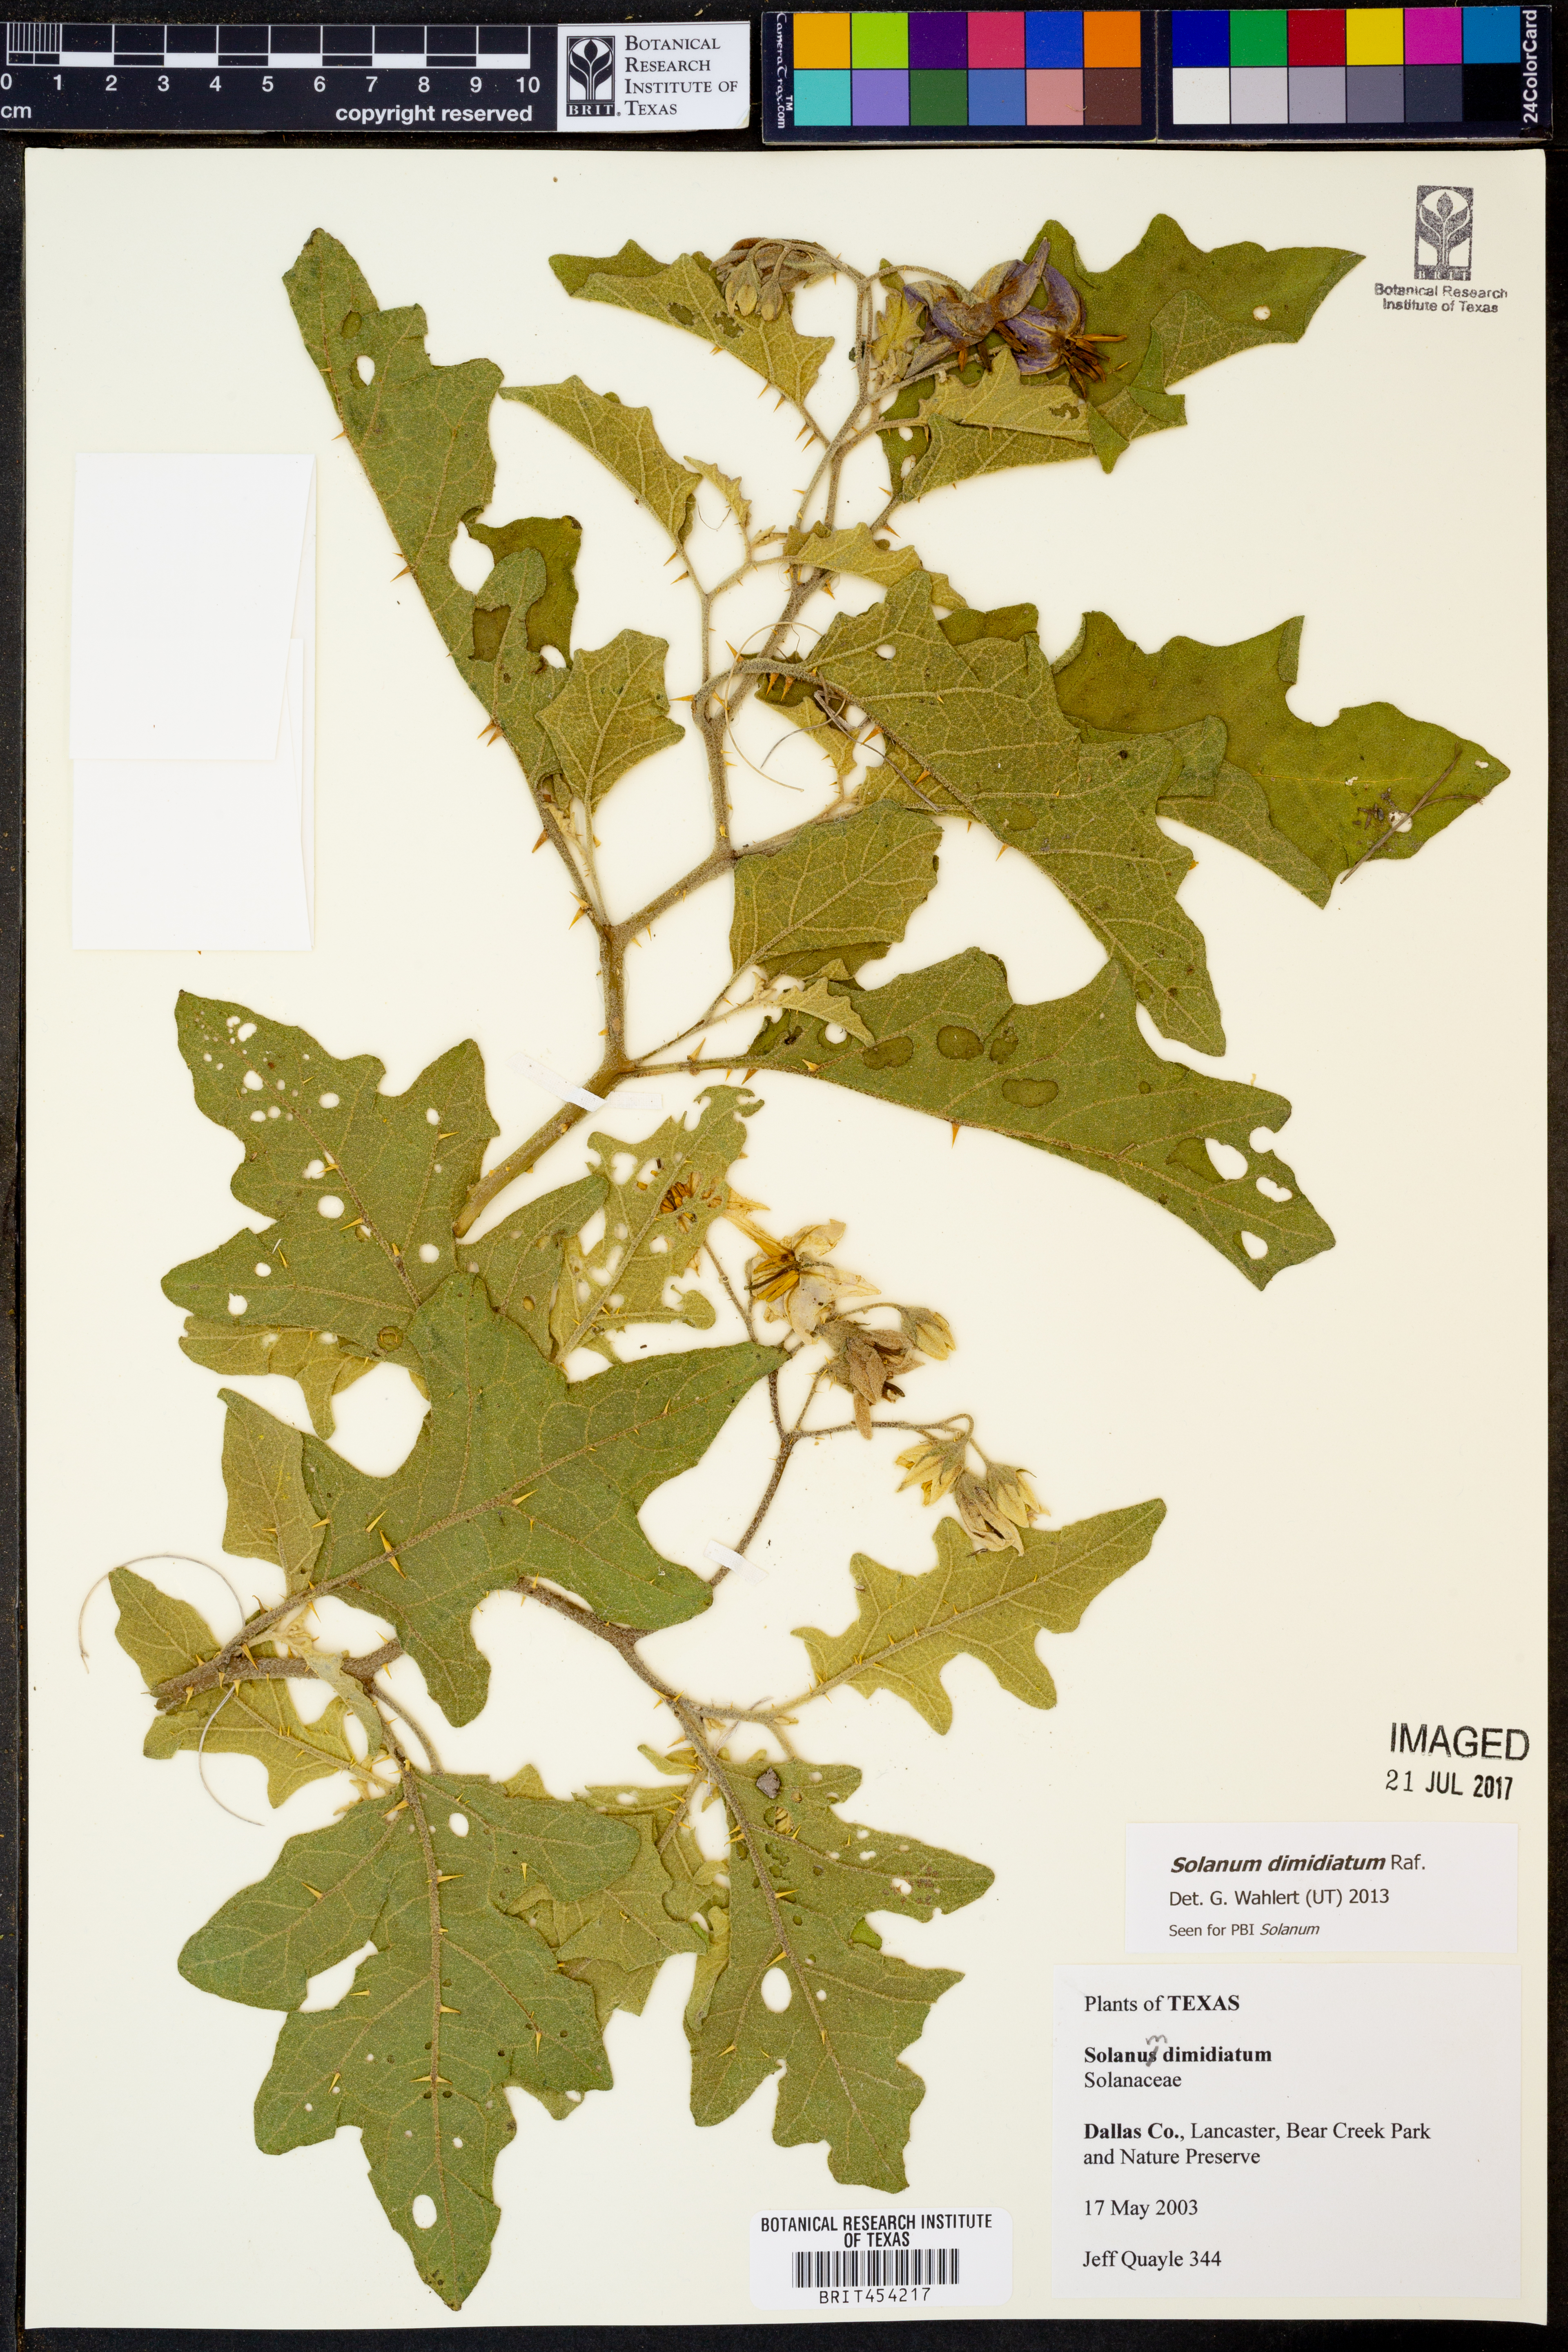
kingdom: Plantae
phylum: Tracheophyta
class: Magnoliopsida
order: Solanales
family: Solanaceae
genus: Solanum
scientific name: Solanum dimidiatum
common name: Carolina horse-nettle
